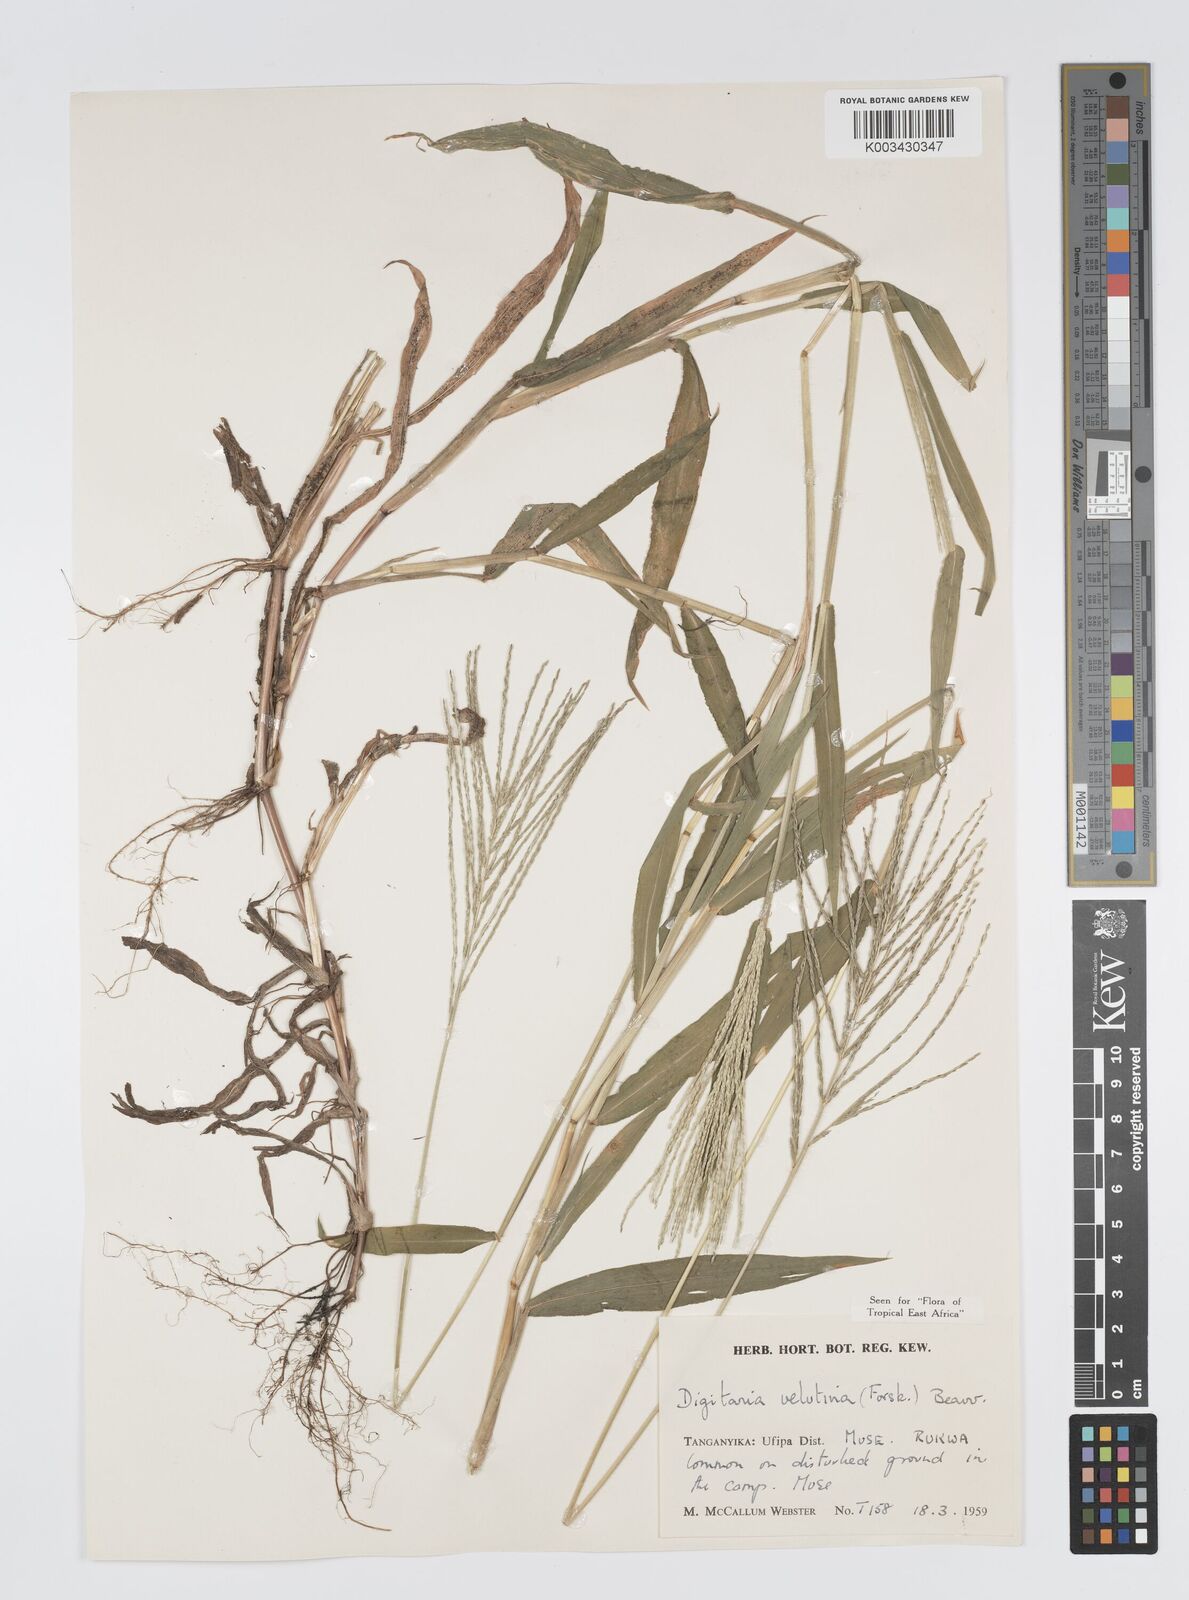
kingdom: Plantae
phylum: Tracheophyta
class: Liliopsida
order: Poales
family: Poaceae
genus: Digitaria
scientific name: Digitaria velutina
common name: Long-plume finger grass
